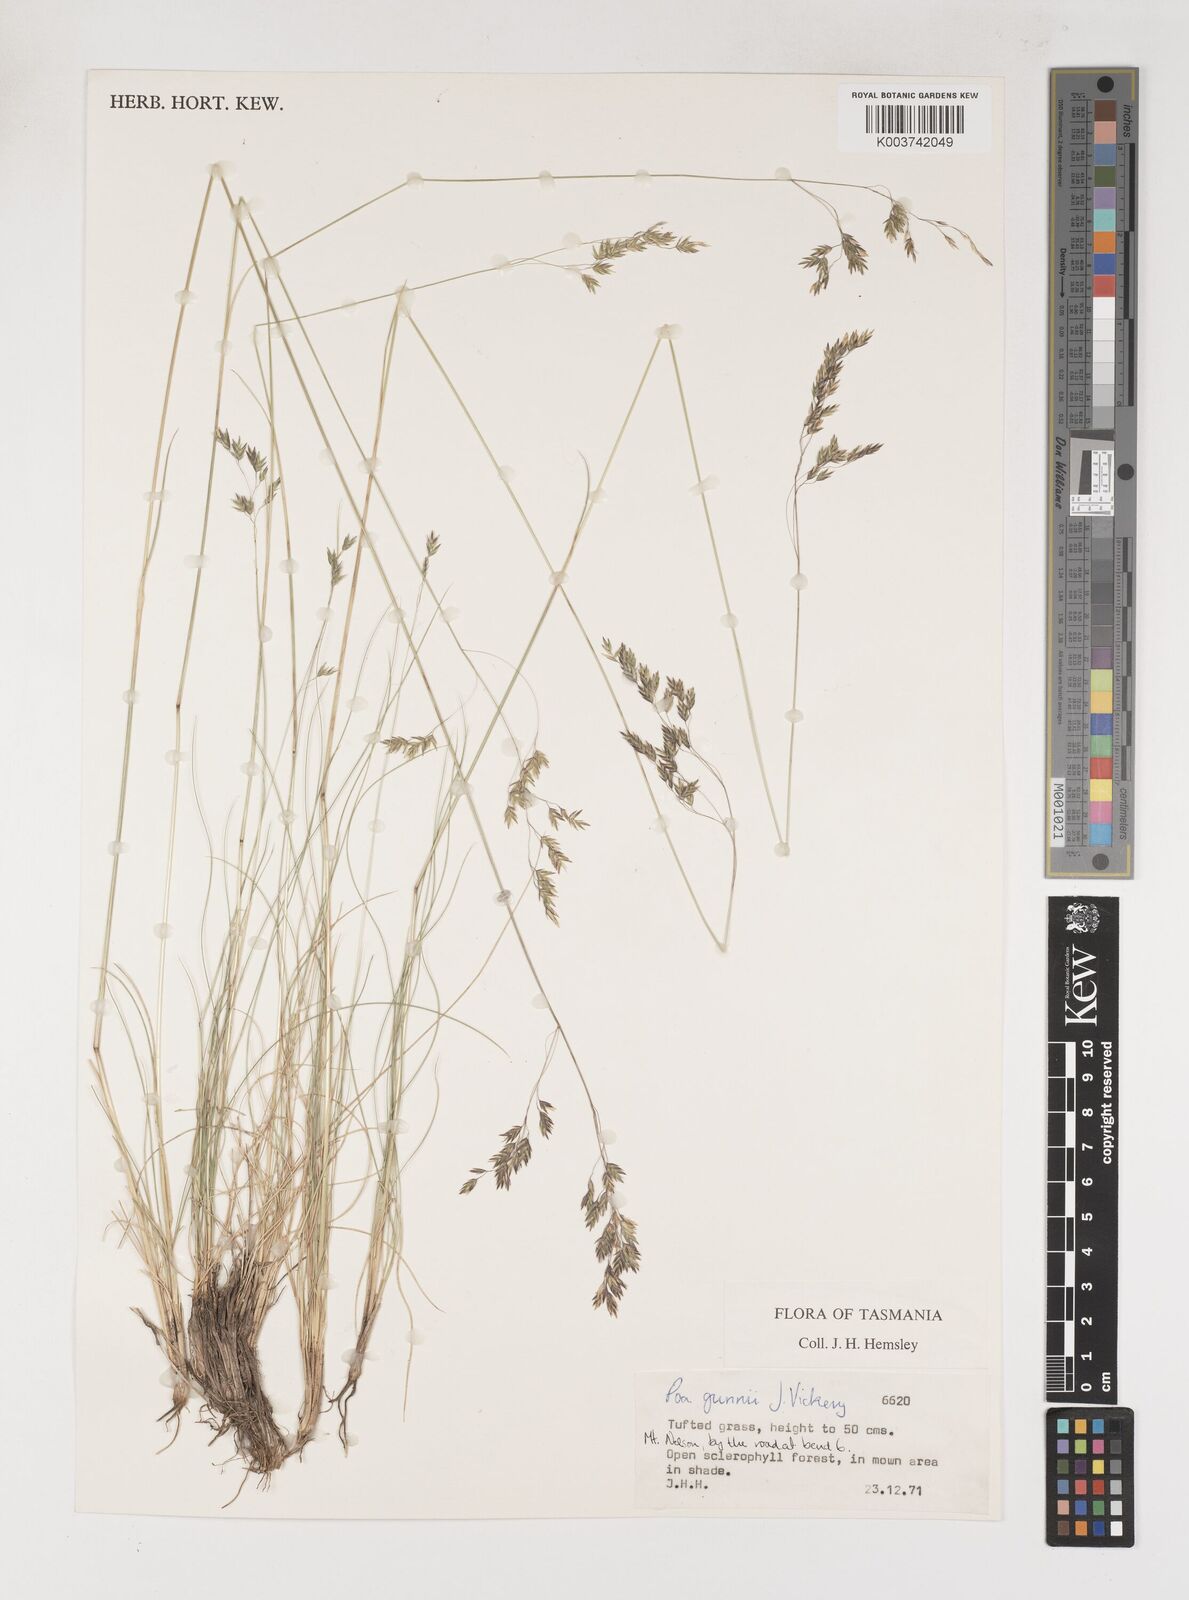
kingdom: Plantae
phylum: Tracheophyta
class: Liliopsida
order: Poales
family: Poaceae
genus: Poa
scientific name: Poa gunnii
